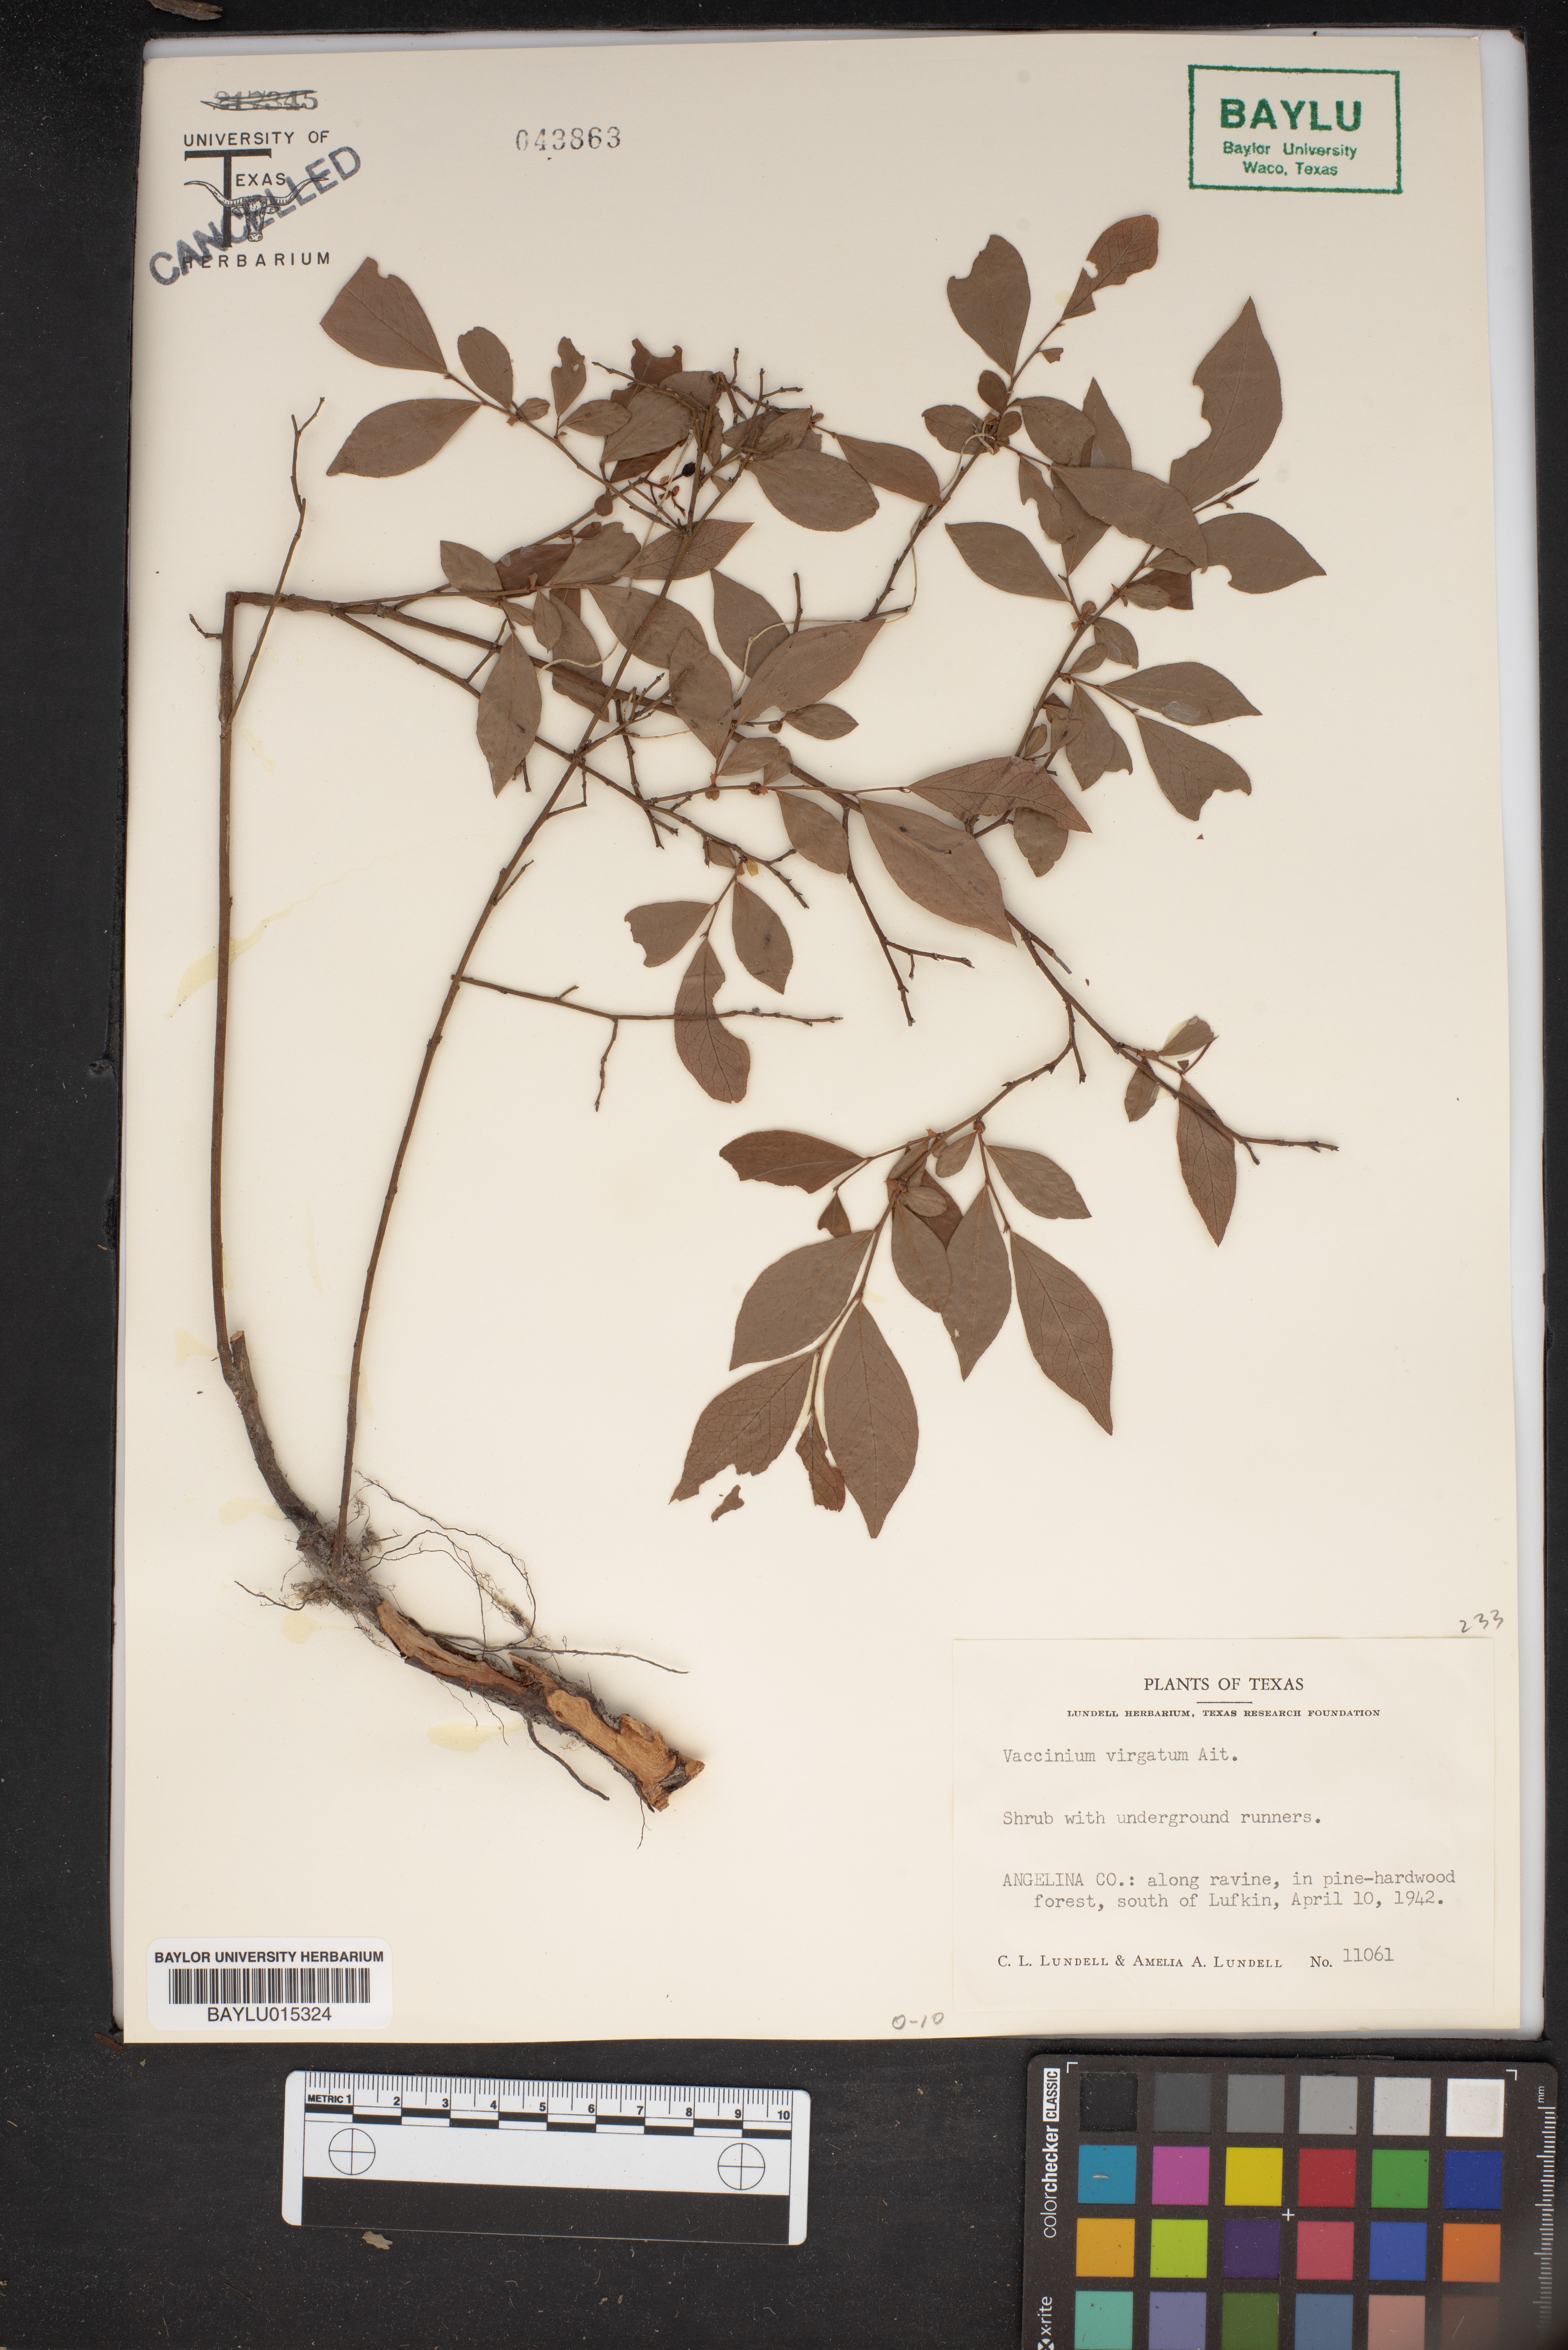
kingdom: Plantae
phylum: Tracheophyta
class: Magnoliopsida
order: Ericales
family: Ericaceae
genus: Vaccinium
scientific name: Vaccinium corymbosum
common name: Blueberry
